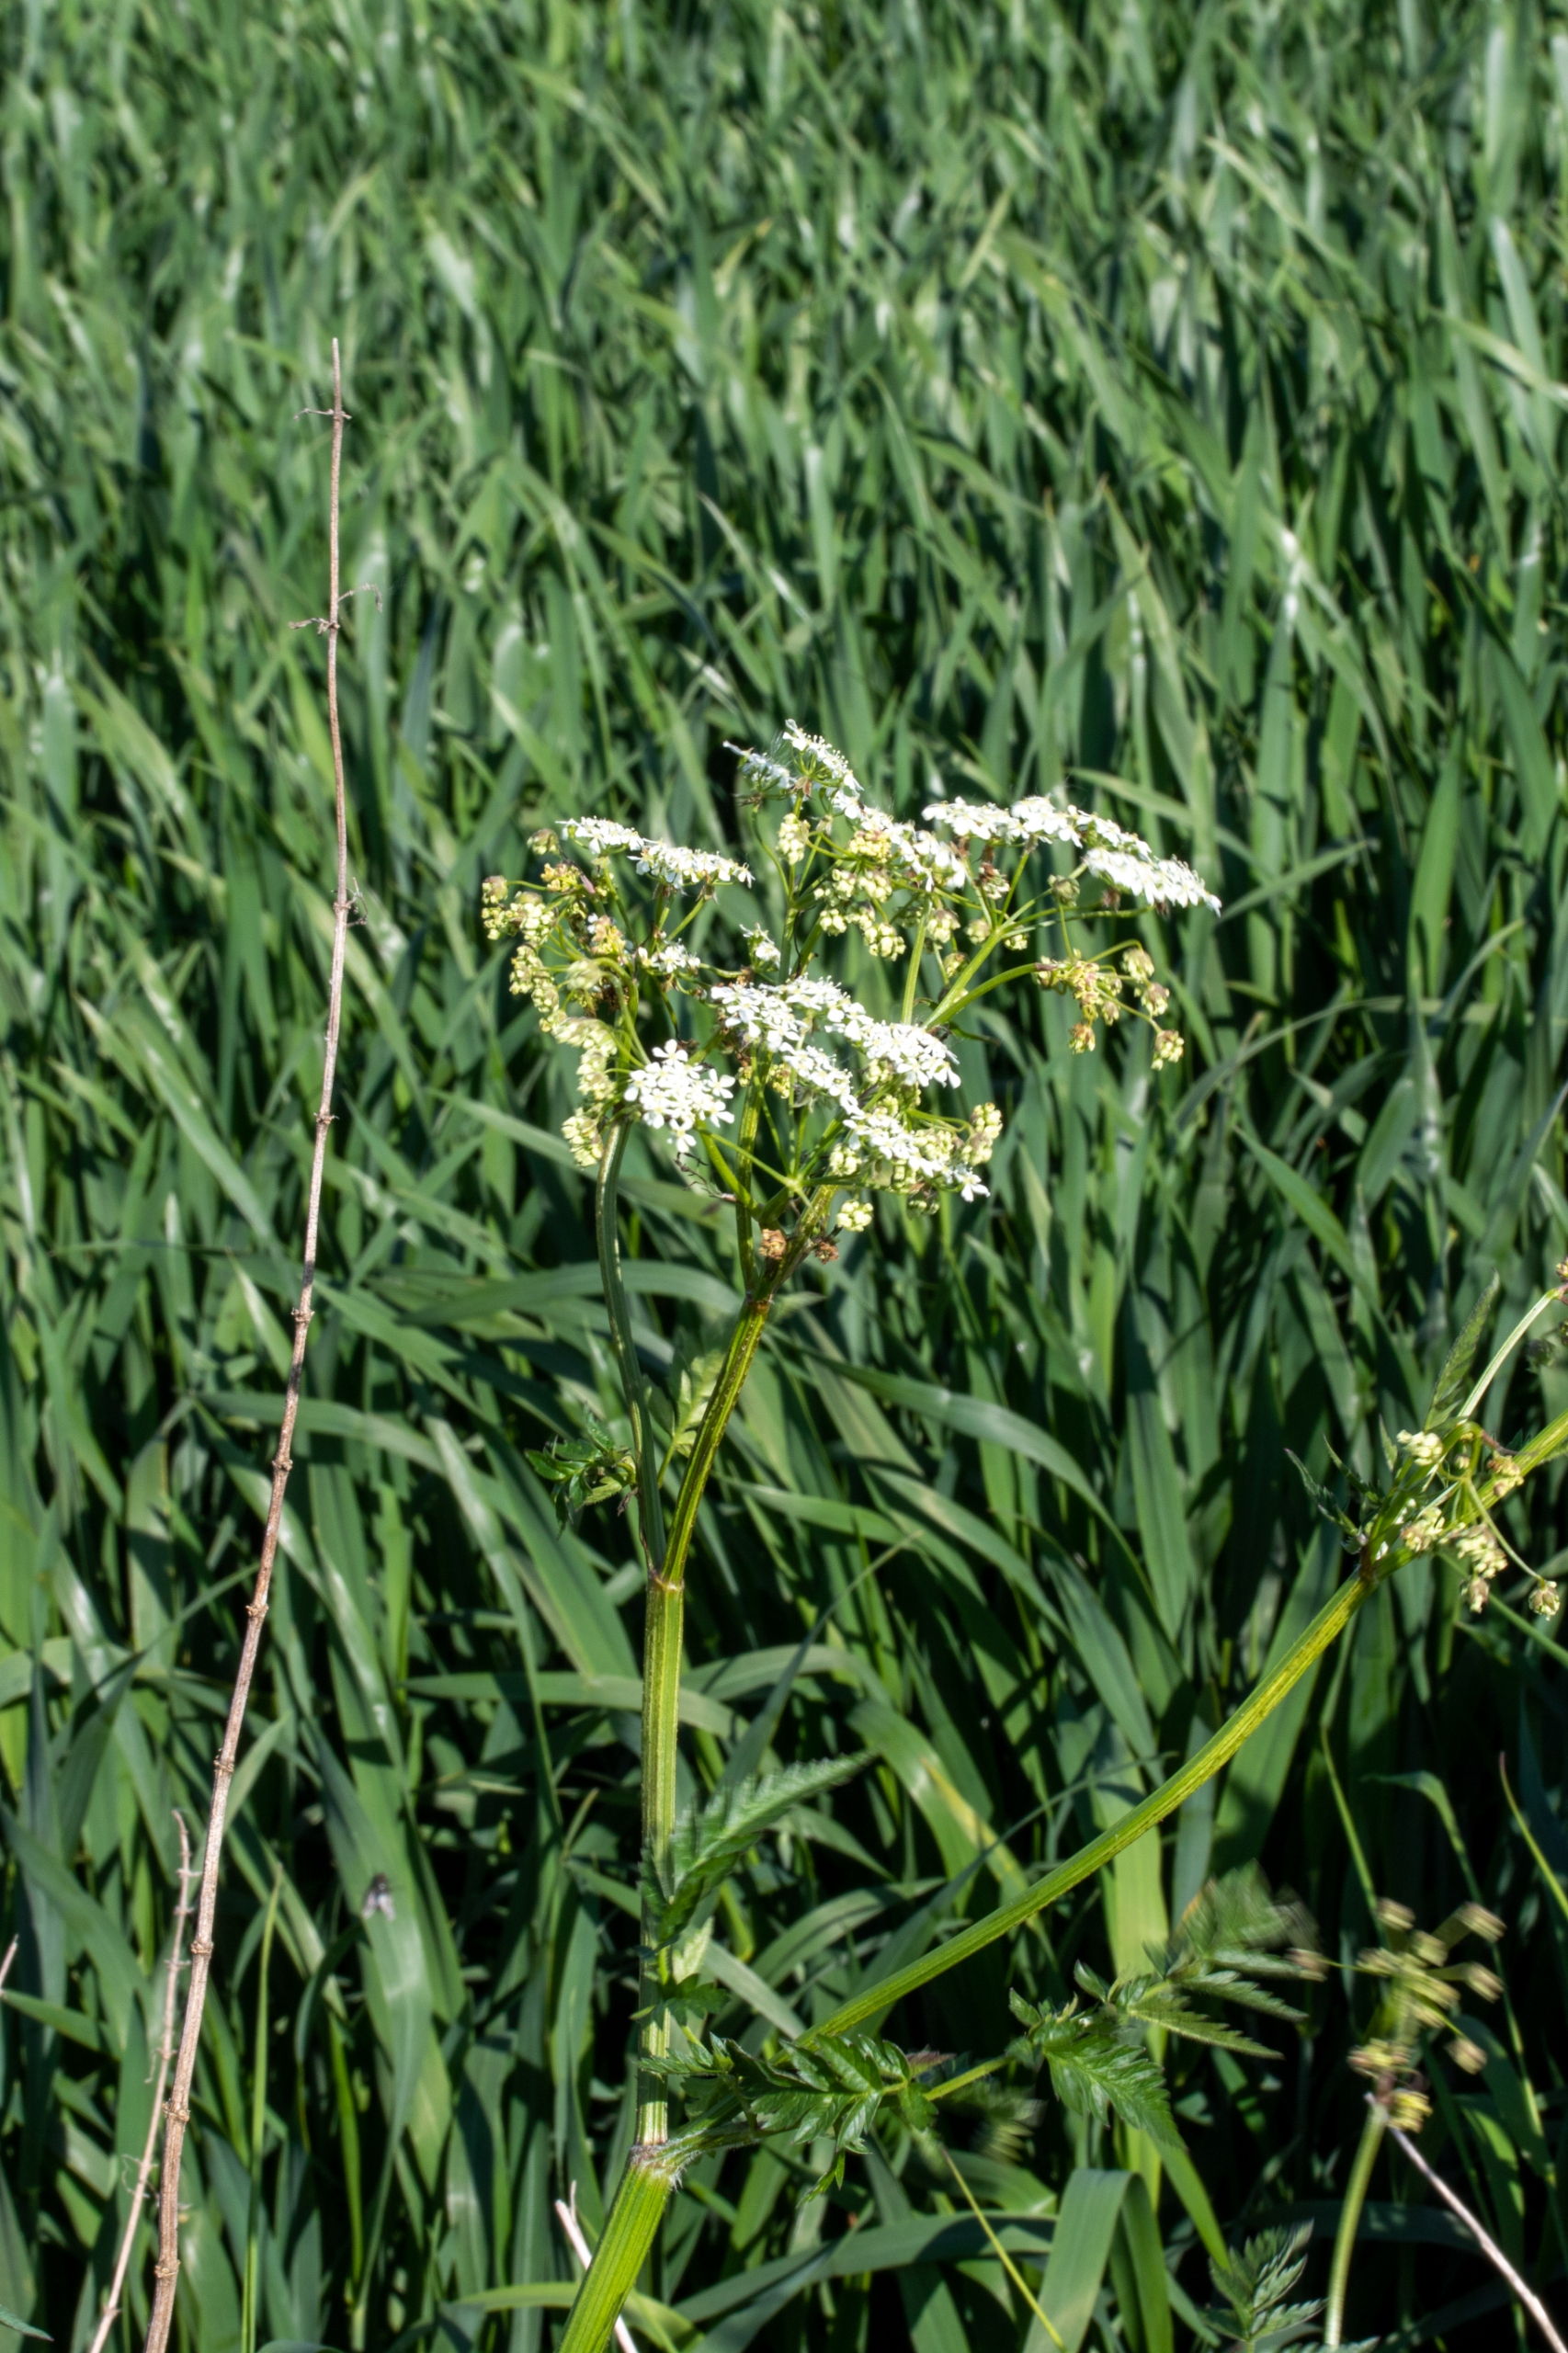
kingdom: Plantae
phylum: Tracheophyta
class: Magnoliopsida
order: Apiales
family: Apiaceae
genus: Anthriscus
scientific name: Anthriscus sylvestris
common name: Vild kørvel
